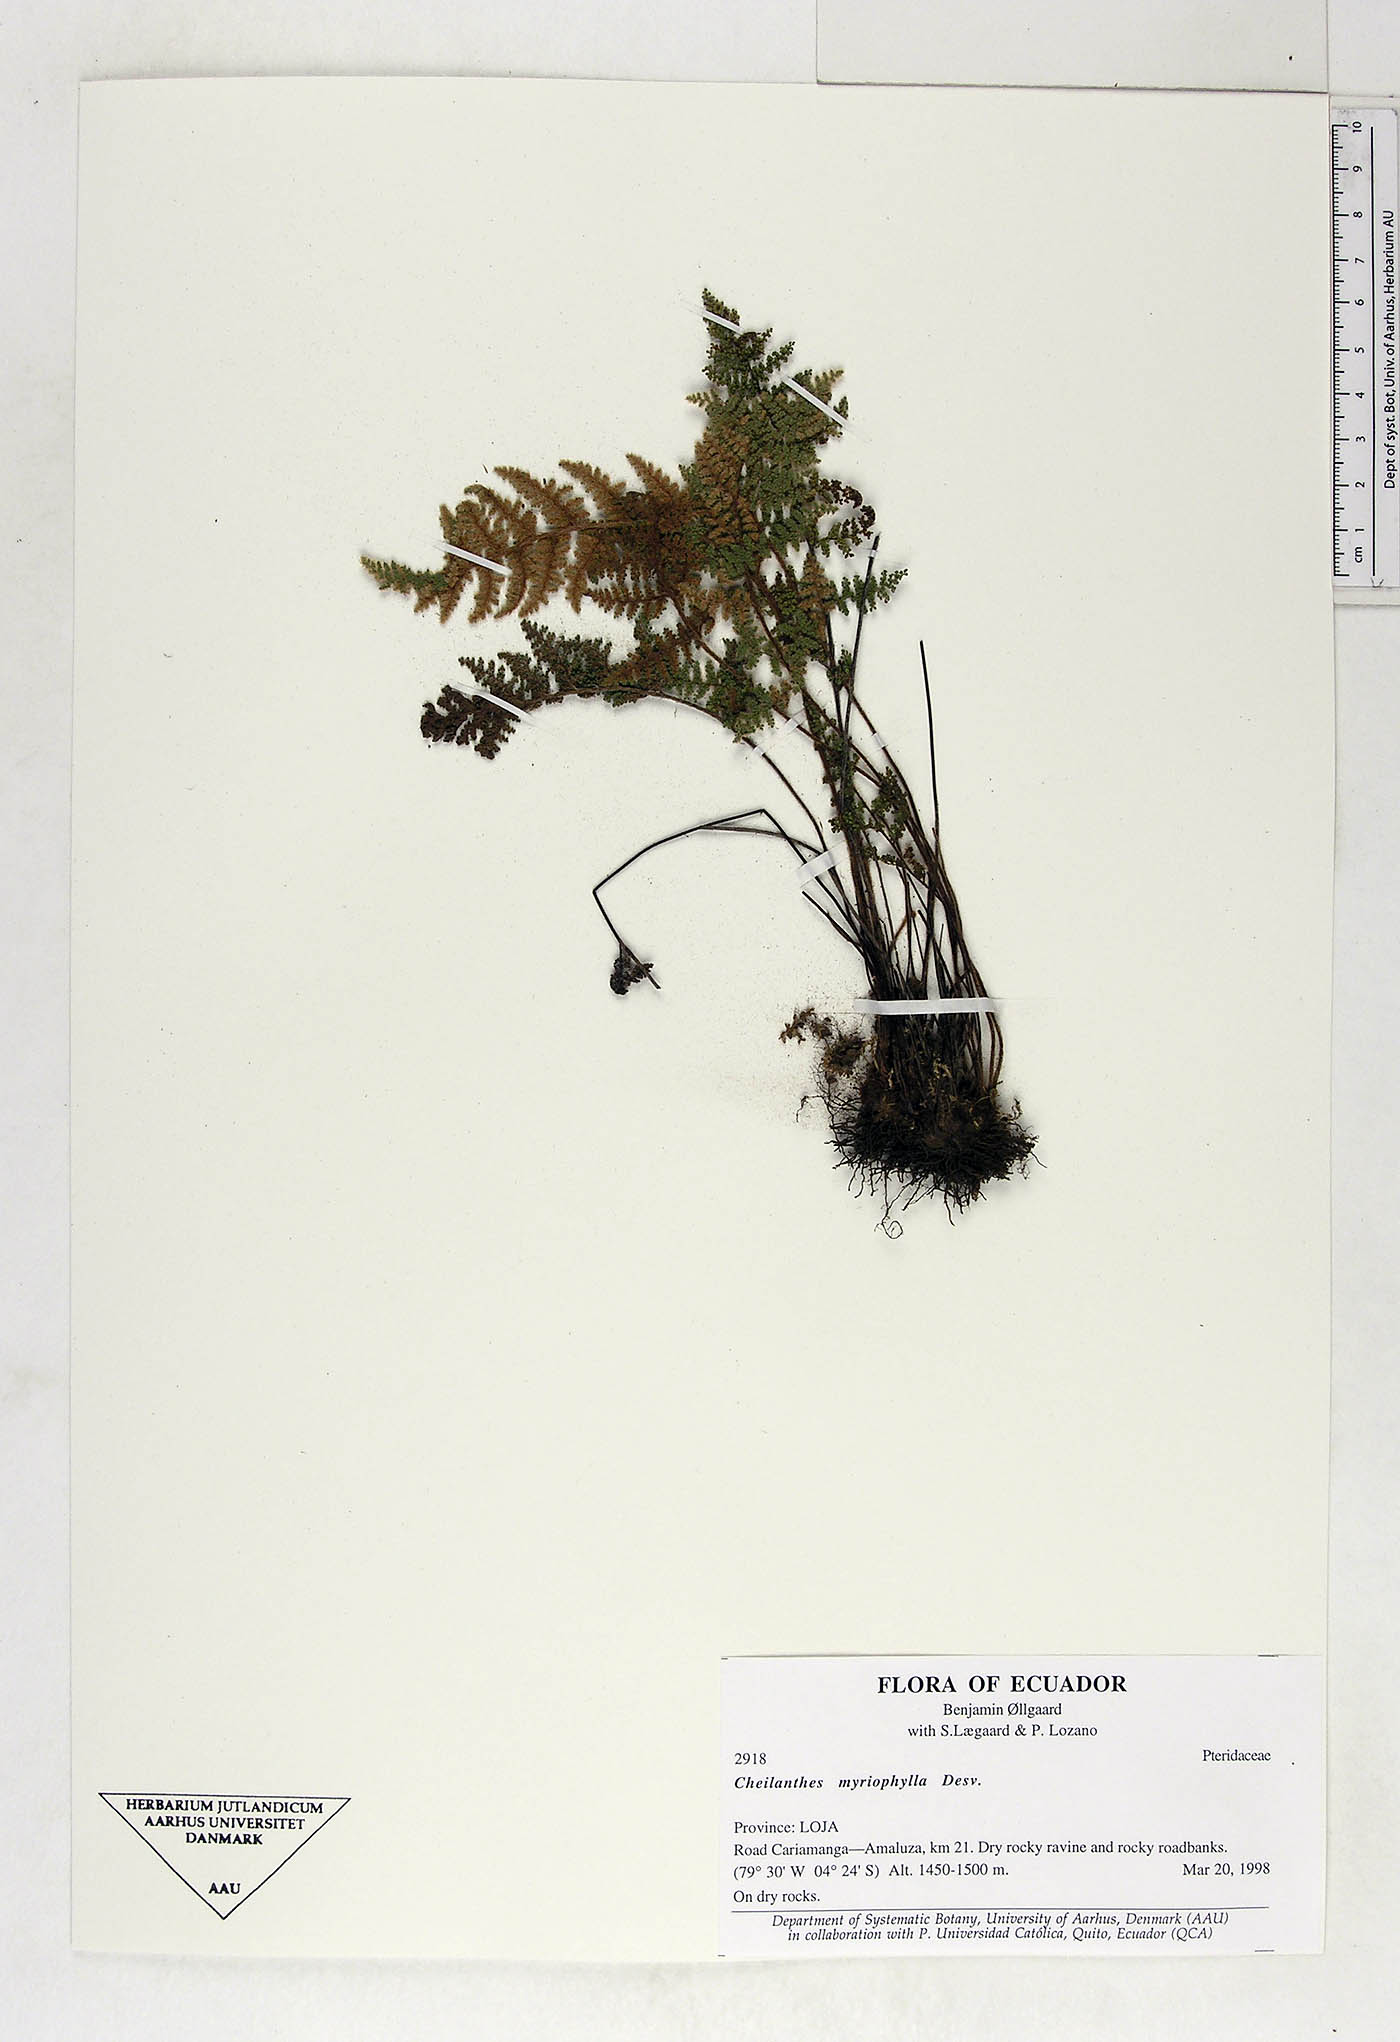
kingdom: Plantae
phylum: Tracheophyta
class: Polypodiopsida
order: Polypodiales
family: Pteridaceae
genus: Myriopteris
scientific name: Myriopteris myriophylla
